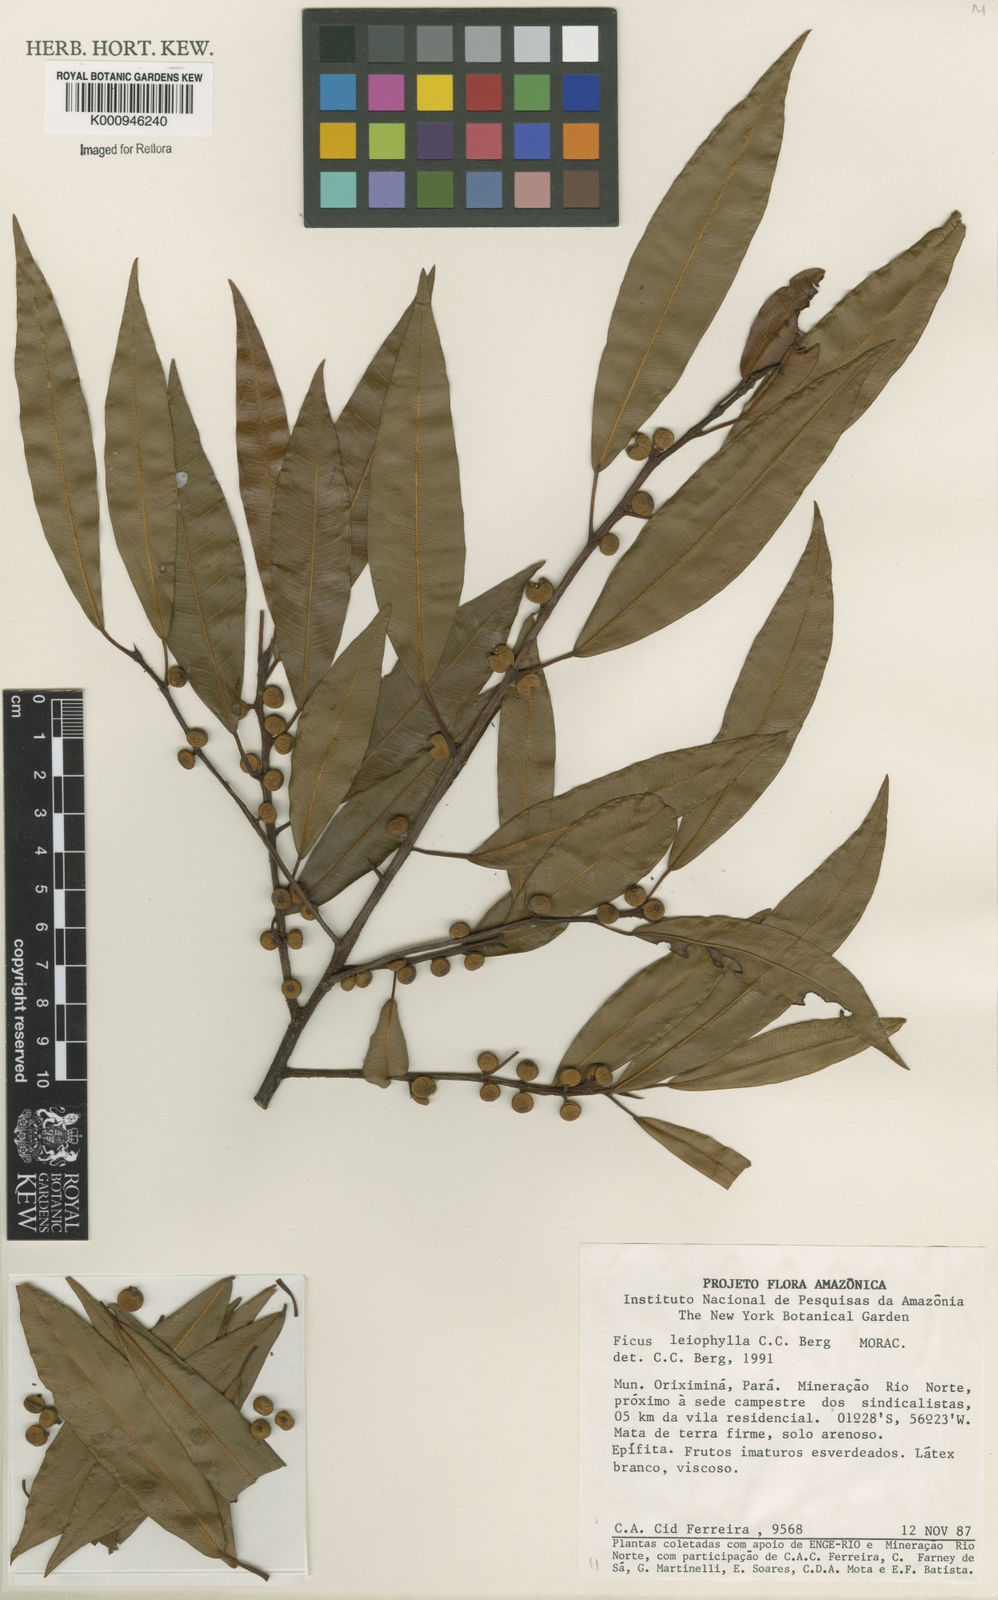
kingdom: Plantae
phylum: Tracheophyta
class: Magnoliopsida
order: Rosales
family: Moraceae
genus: Ficus
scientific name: Ficus leiophylla
